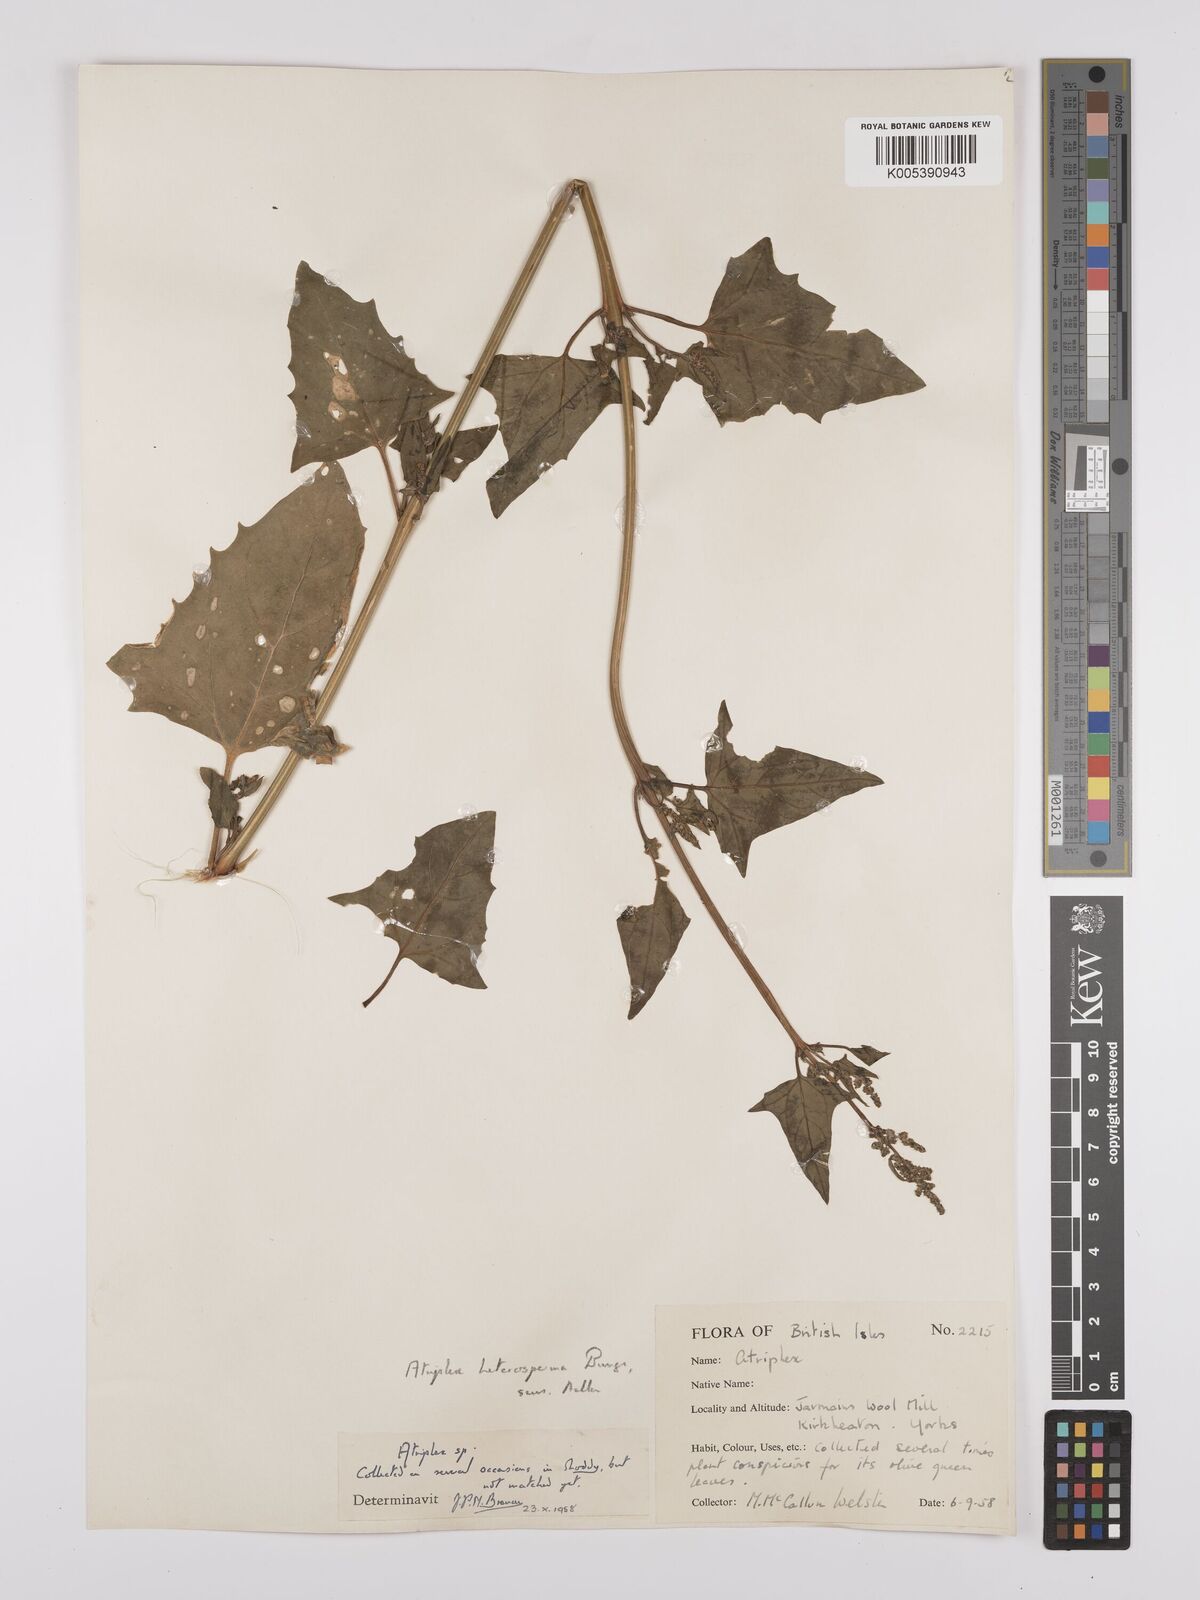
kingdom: Plantae
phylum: Tracheophyta
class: Magnoliopsida
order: Caryophyllales
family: Amaranthaceae
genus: Atriplex
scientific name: Atriplex micrantha
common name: Twoscale saltbush
